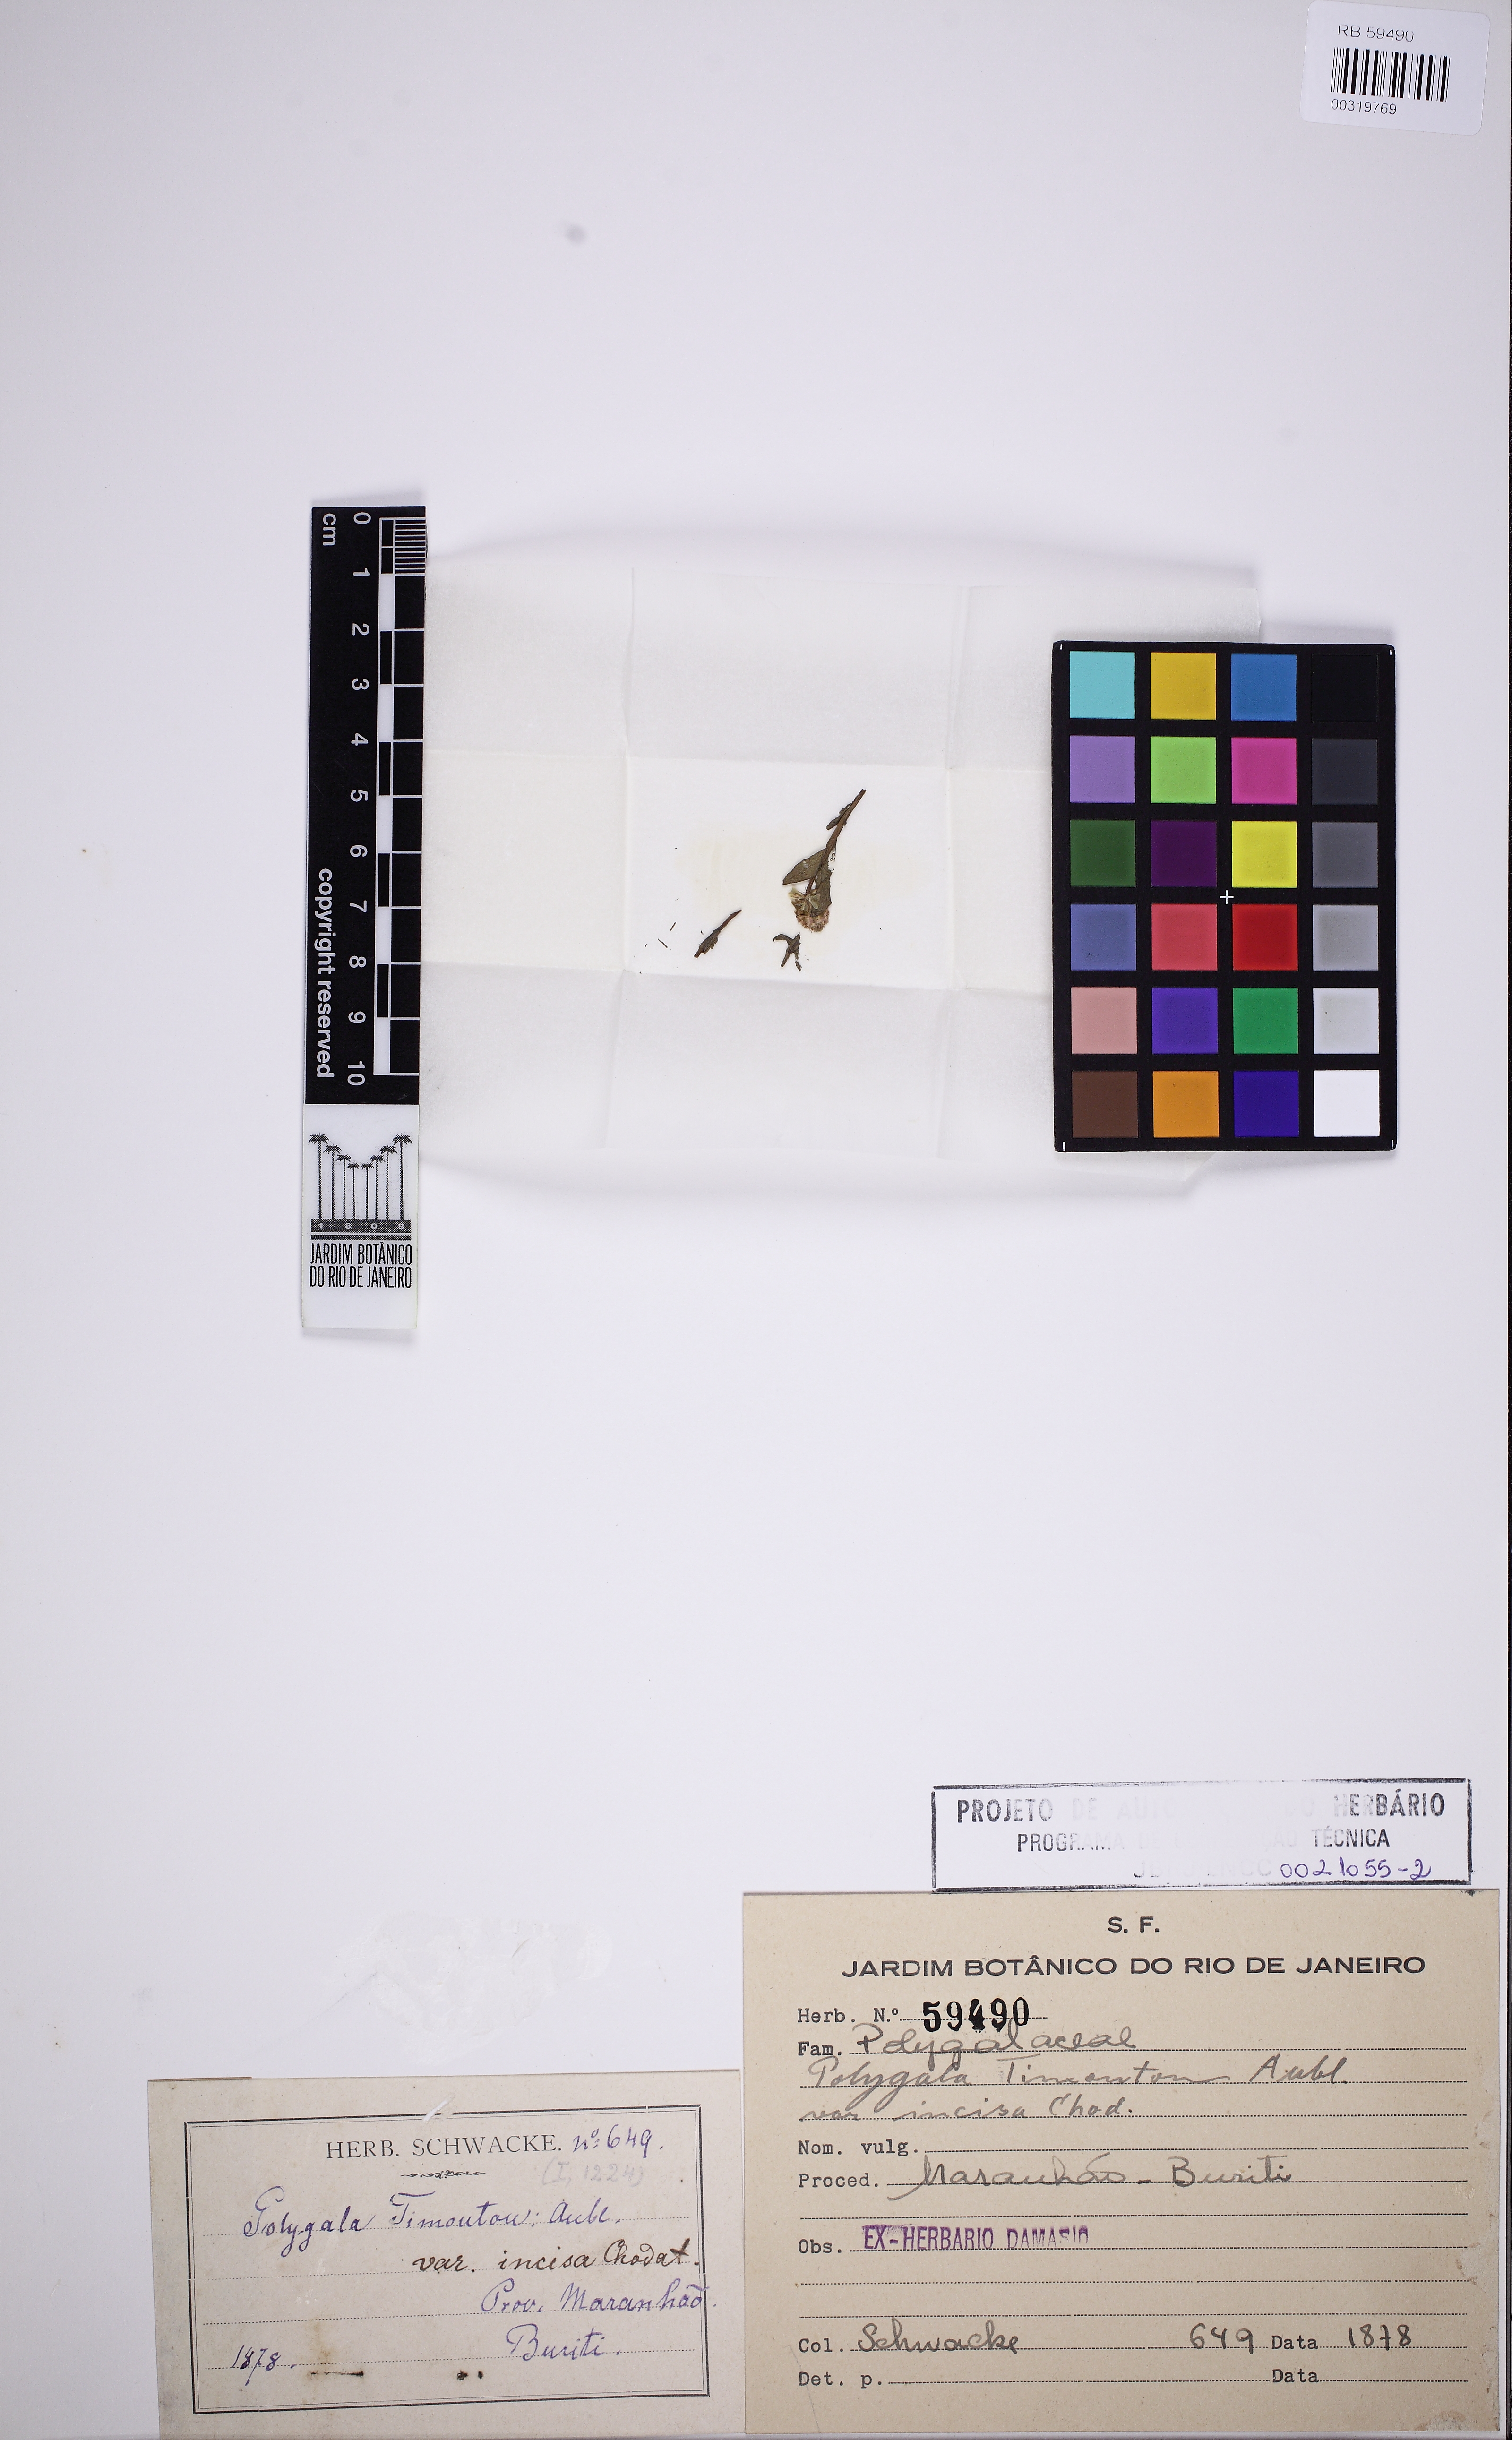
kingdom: Plantae
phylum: Tracheophyta
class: Magnoliopsida
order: Fabales
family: Polygalaceae
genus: Polygala
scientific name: Polygala timoutou
